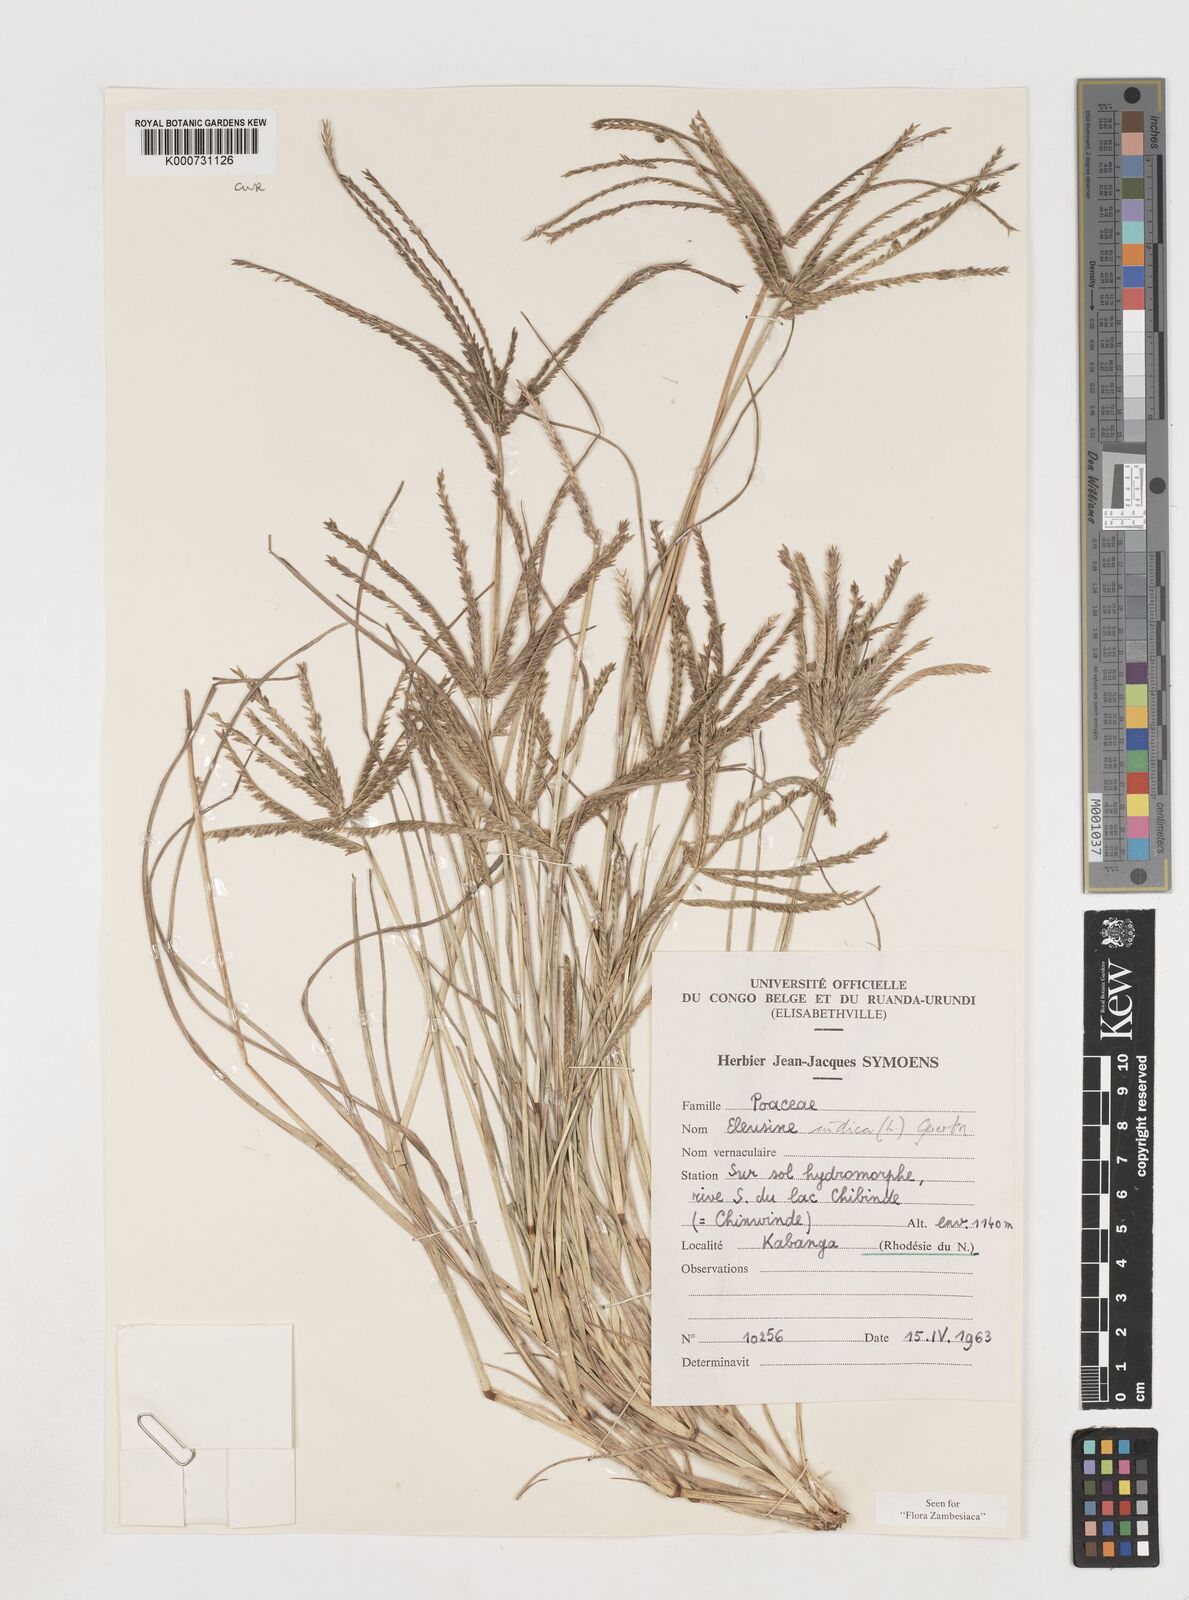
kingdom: Plantae
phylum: Tracheophyta
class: Liliopsida
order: Poales
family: Poaceae
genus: Eleusine
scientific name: Eleusine indica
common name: Yard-grass
